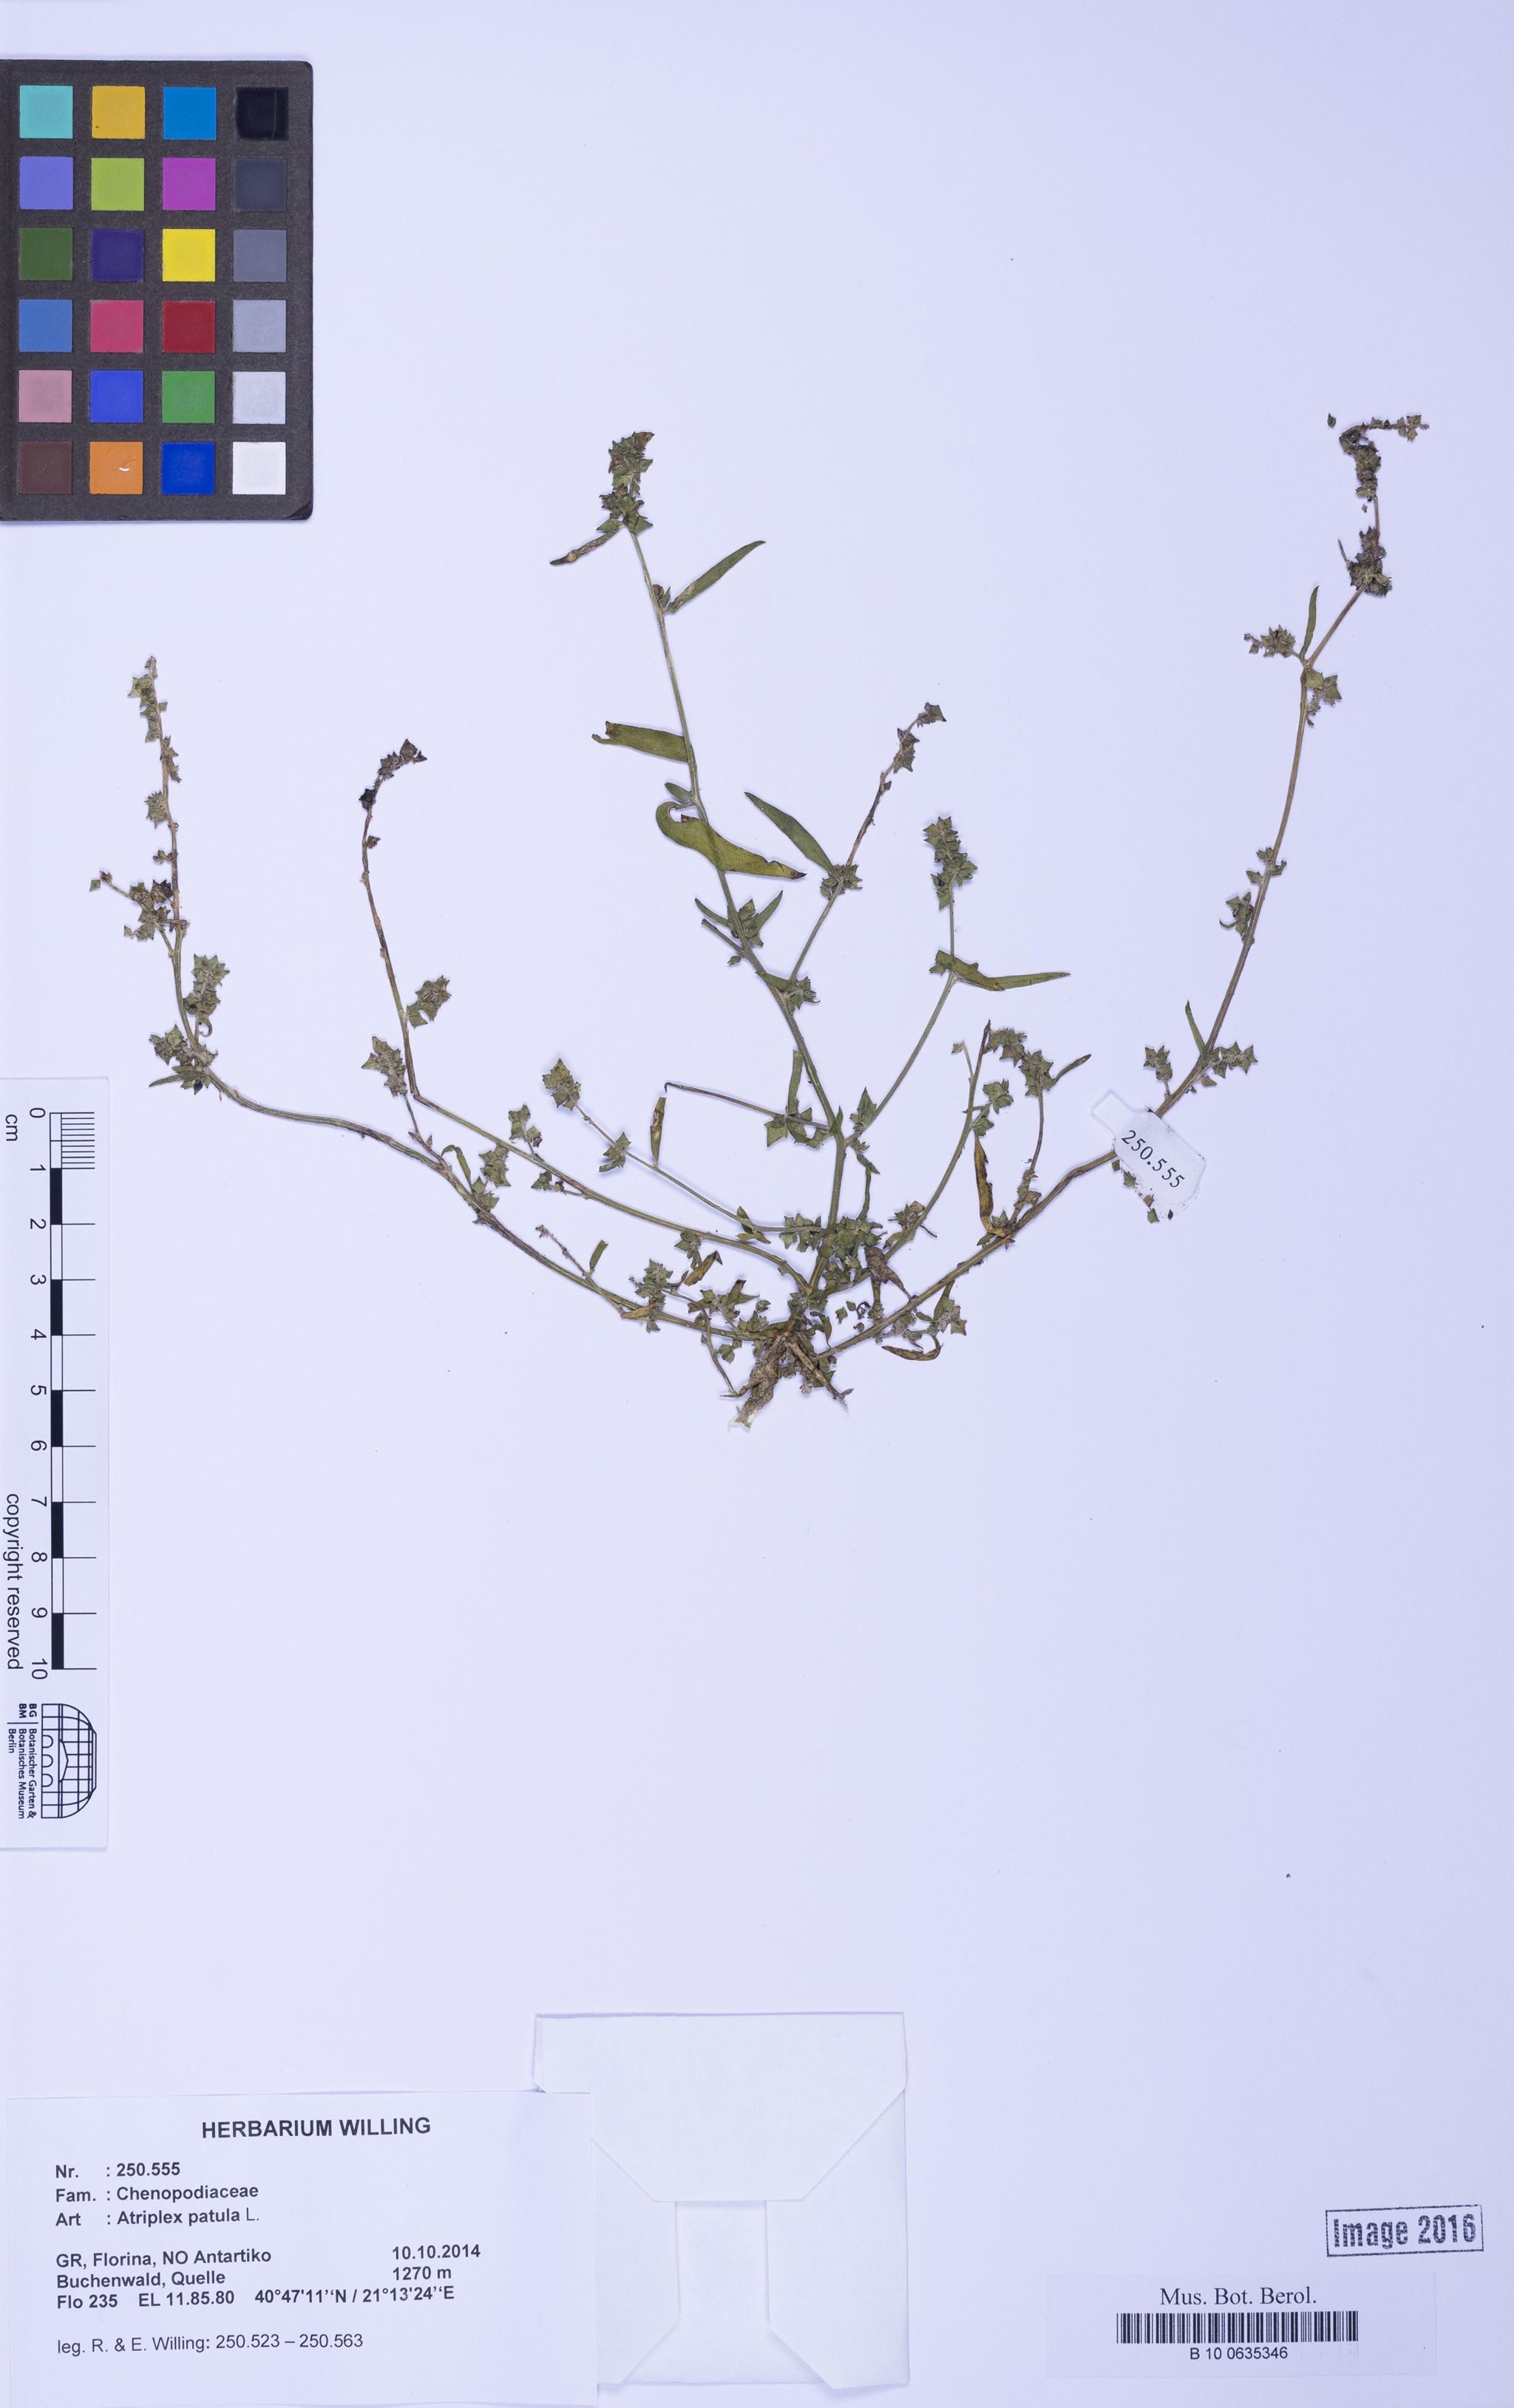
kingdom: Plantae
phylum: Tracheophyta
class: Magnoliopsida
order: Caryophyllales
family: Amaranthaceae
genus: Atriplex
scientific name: Atriplex patula
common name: Common orache
